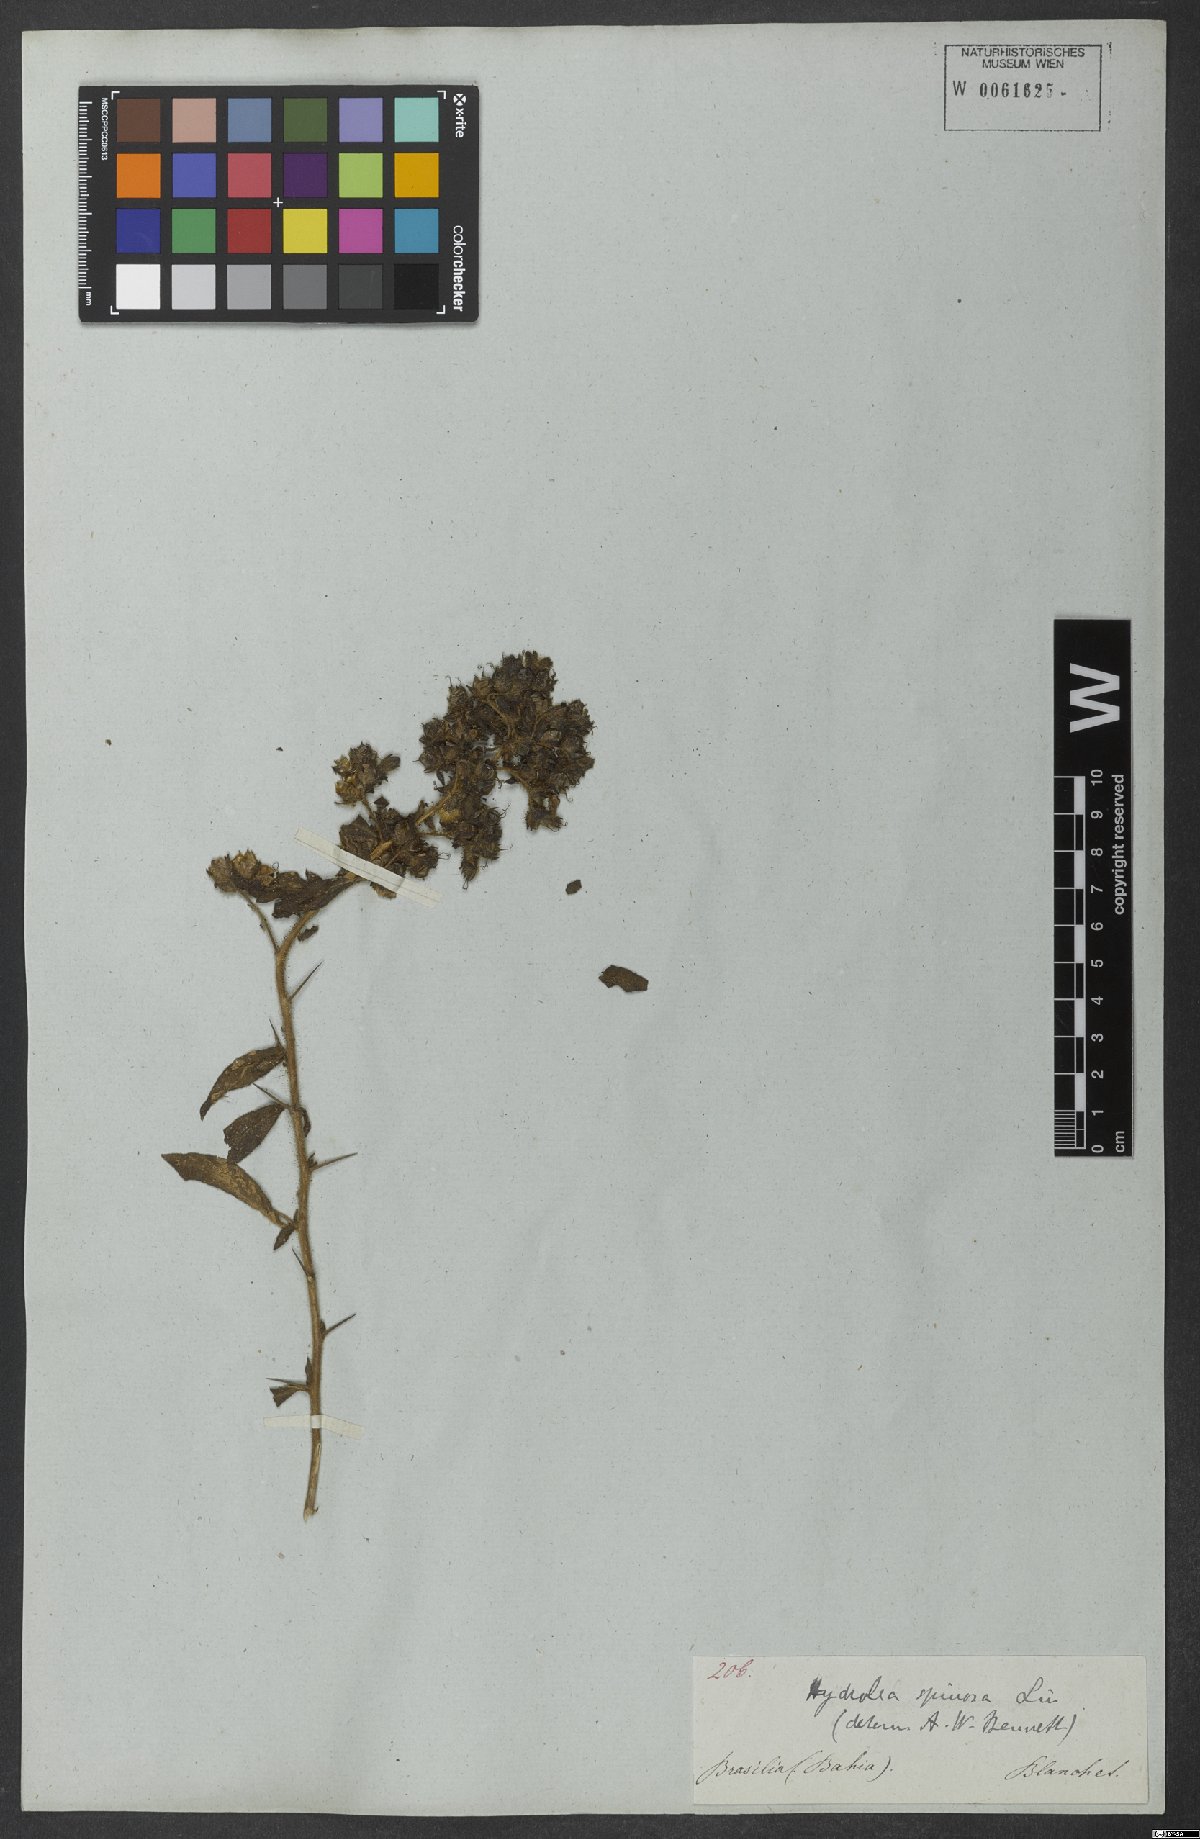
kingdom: Plantae
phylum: Tracheophyta
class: Magnoliopsida
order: Solanales
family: Hydroleaceae
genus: Hydrolea
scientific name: Hydrolea spinosa
